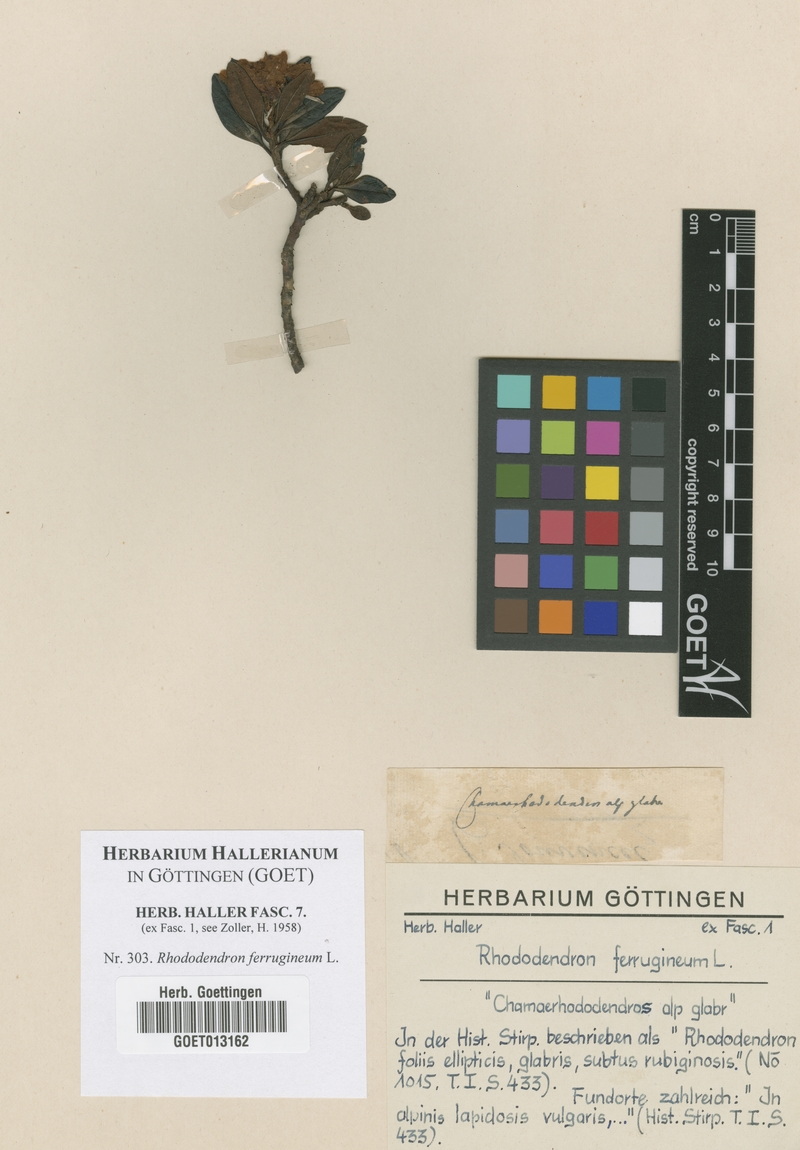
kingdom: Plantae
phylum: Tracheophyta
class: Magnoliopsida
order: Ericales
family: Ericaceae
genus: Rhododendron
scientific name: Rhododendron ferrugineum
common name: Alpenrose
